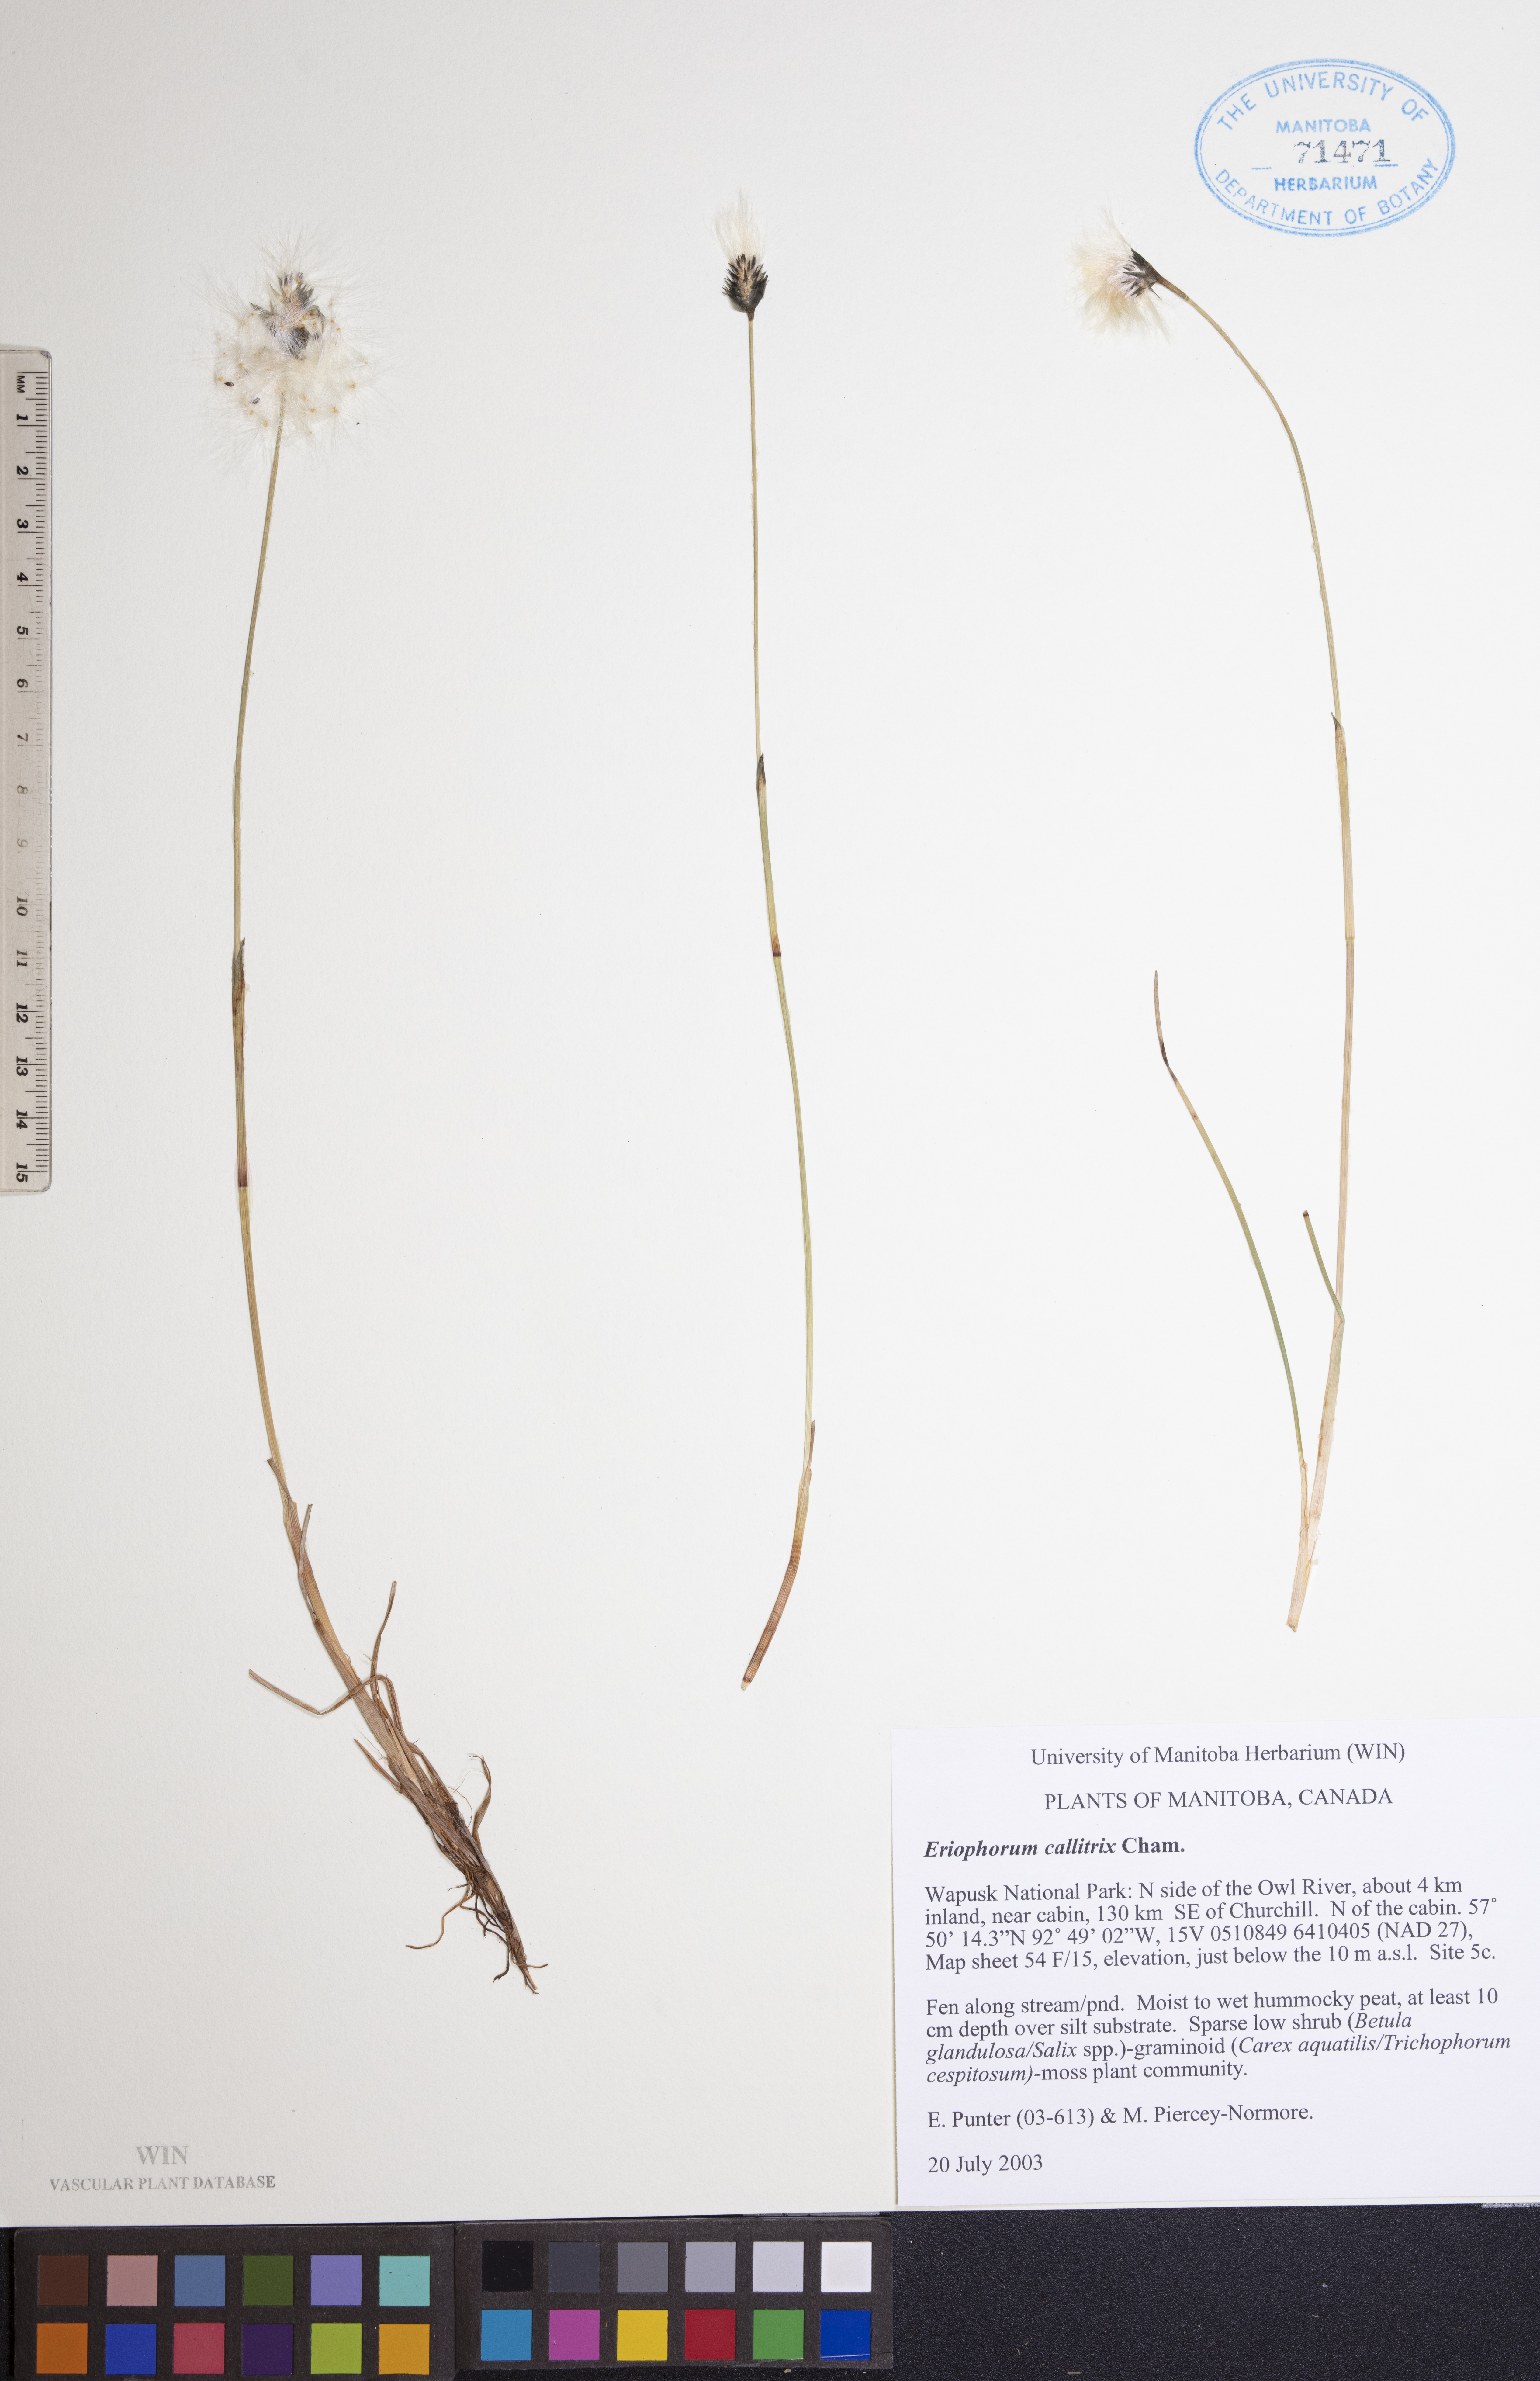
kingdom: Plantae
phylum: Tracheophyta
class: Liliopsida
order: Poales
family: Cyperaceae
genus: Eriophorum
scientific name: Eriophorum callitrix
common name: Arctic cottongrass
